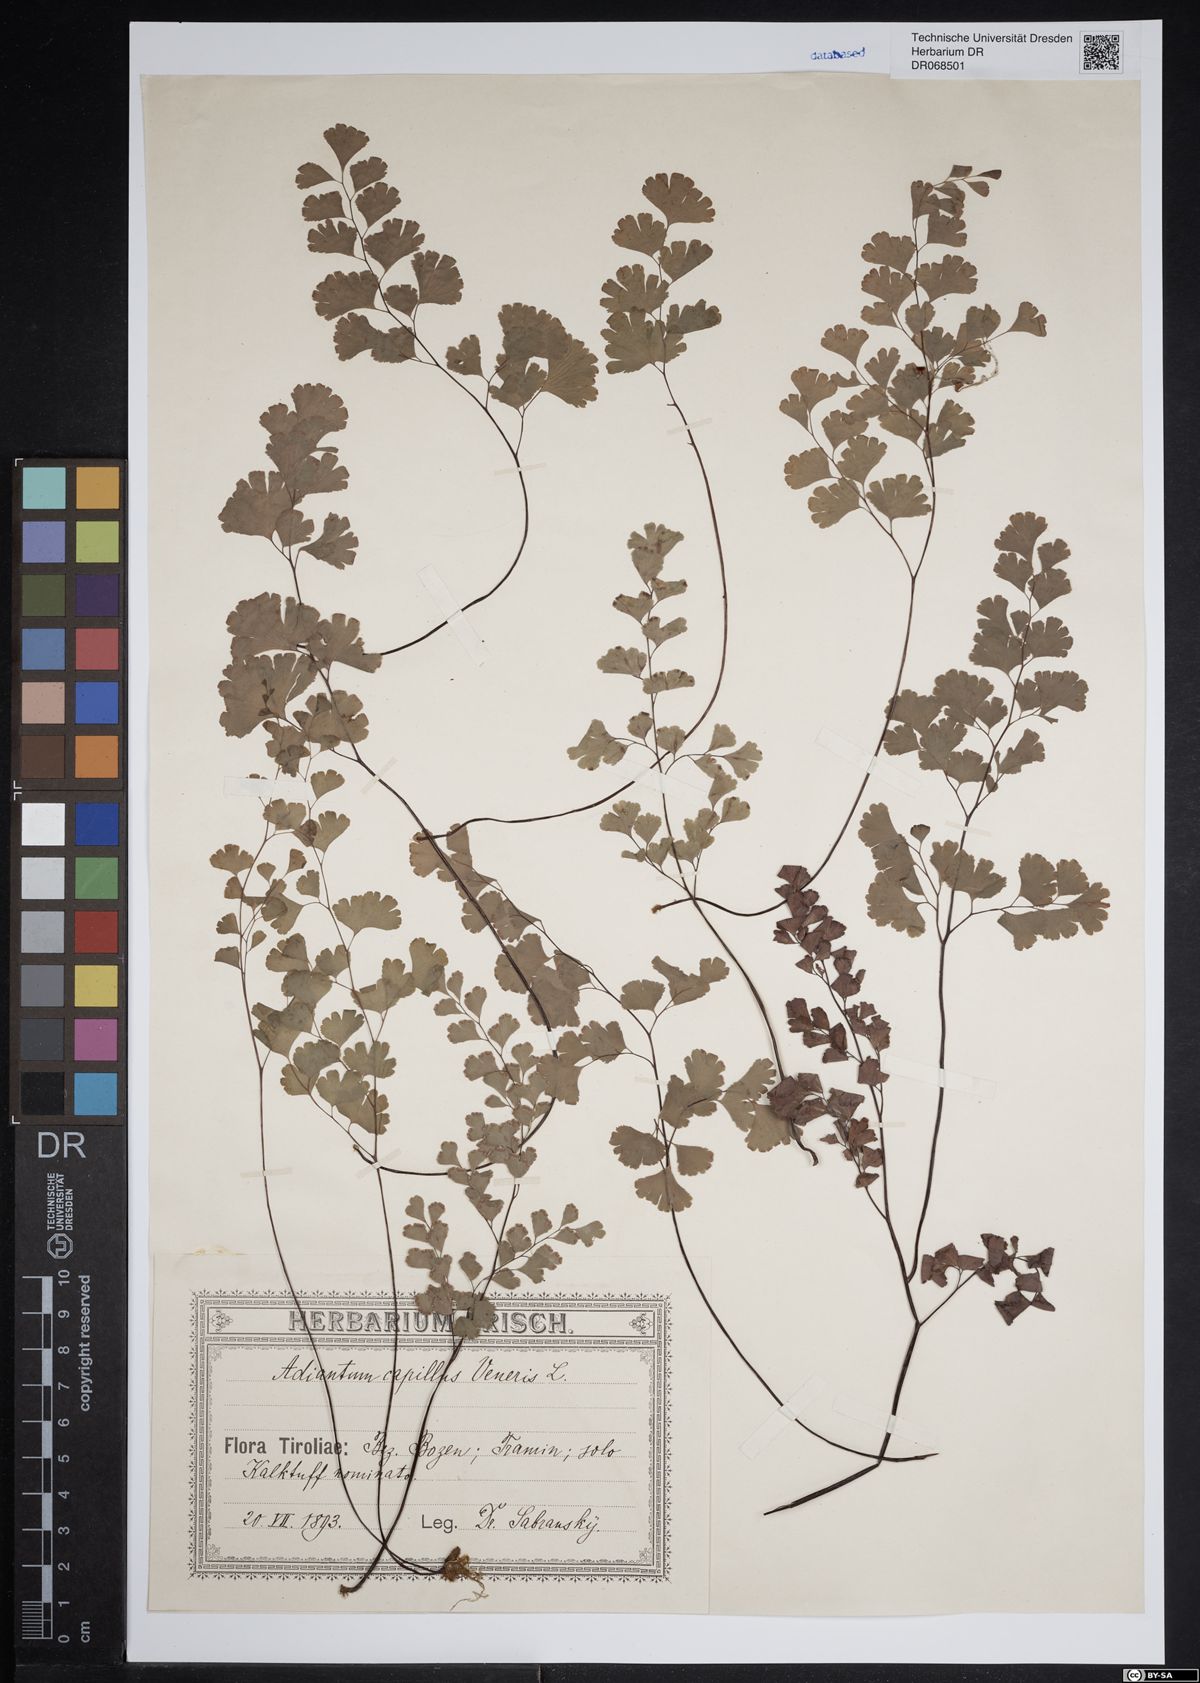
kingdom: Plantae
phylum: Tracheophyta
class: Polypodiopsida
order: Polypodiales
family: Pteridaceae
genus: Adiantum
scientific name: Adiantum capillus-veneris
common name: Maidenhair fern
